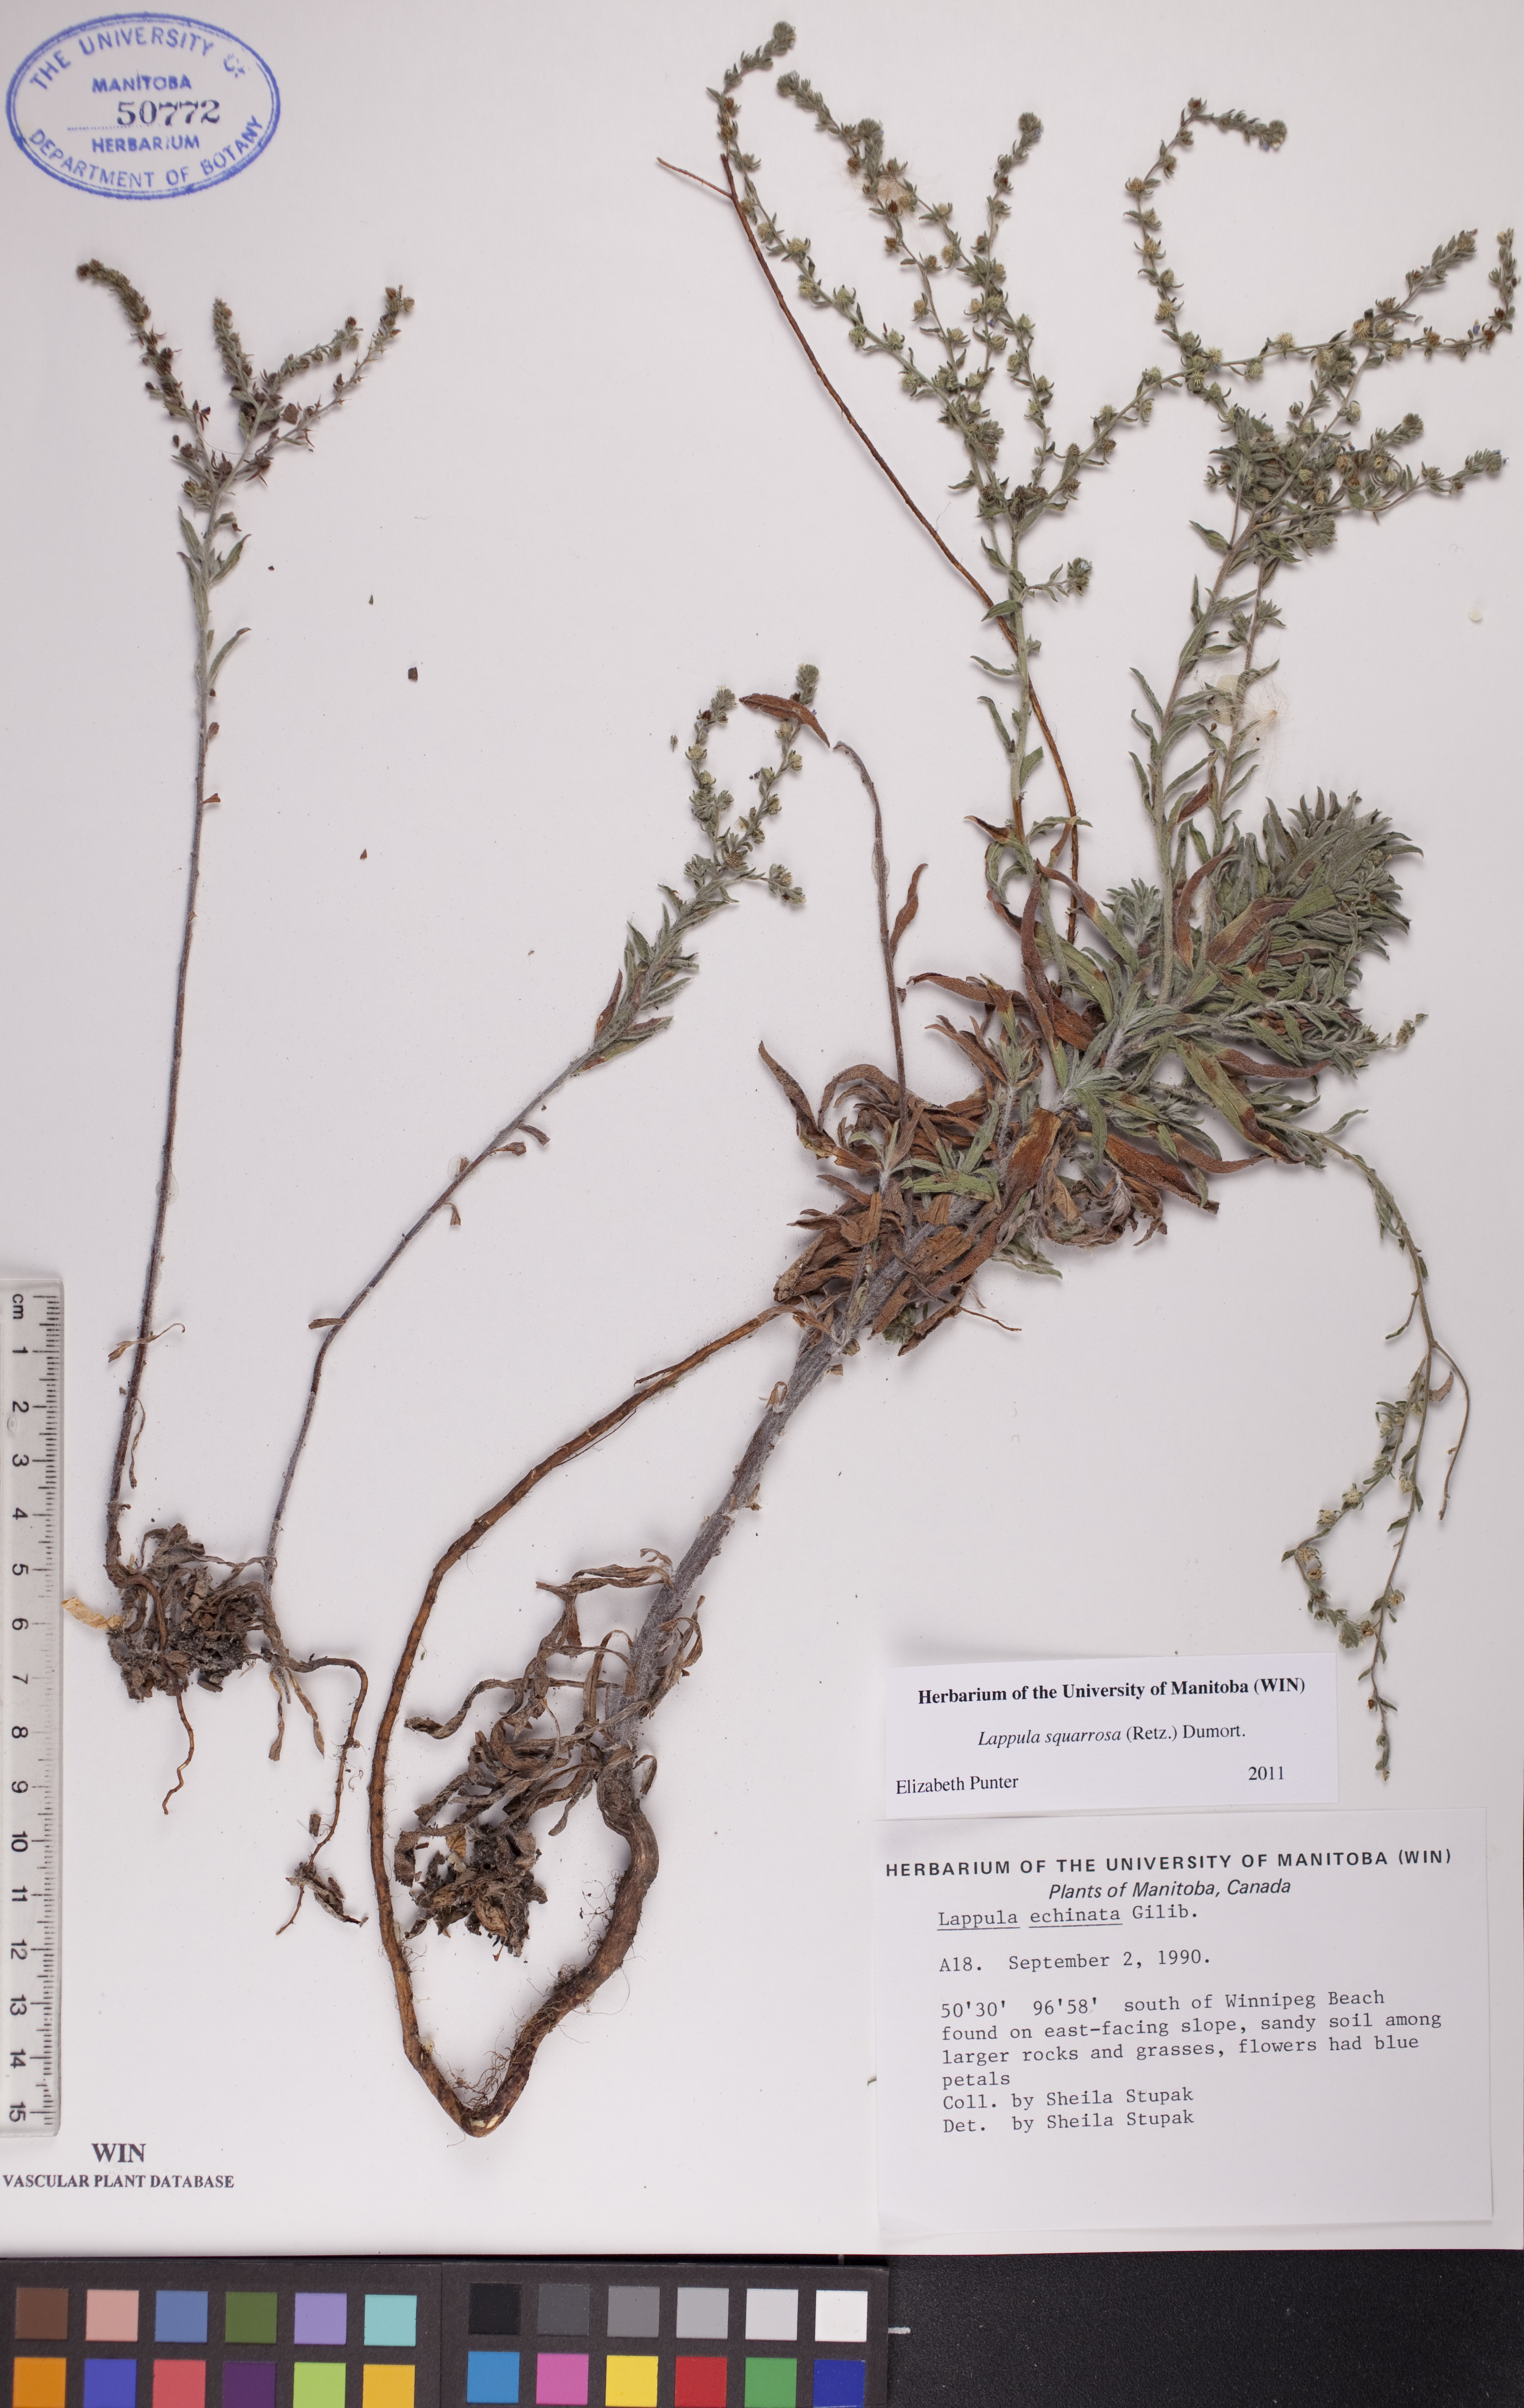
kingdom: Plantae
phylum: Tracheophyta
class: Magnoliopsida
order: Boraginales
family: Boraginaceae
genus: Lappula
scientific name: Lappula squarrosa
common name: European stickseed
